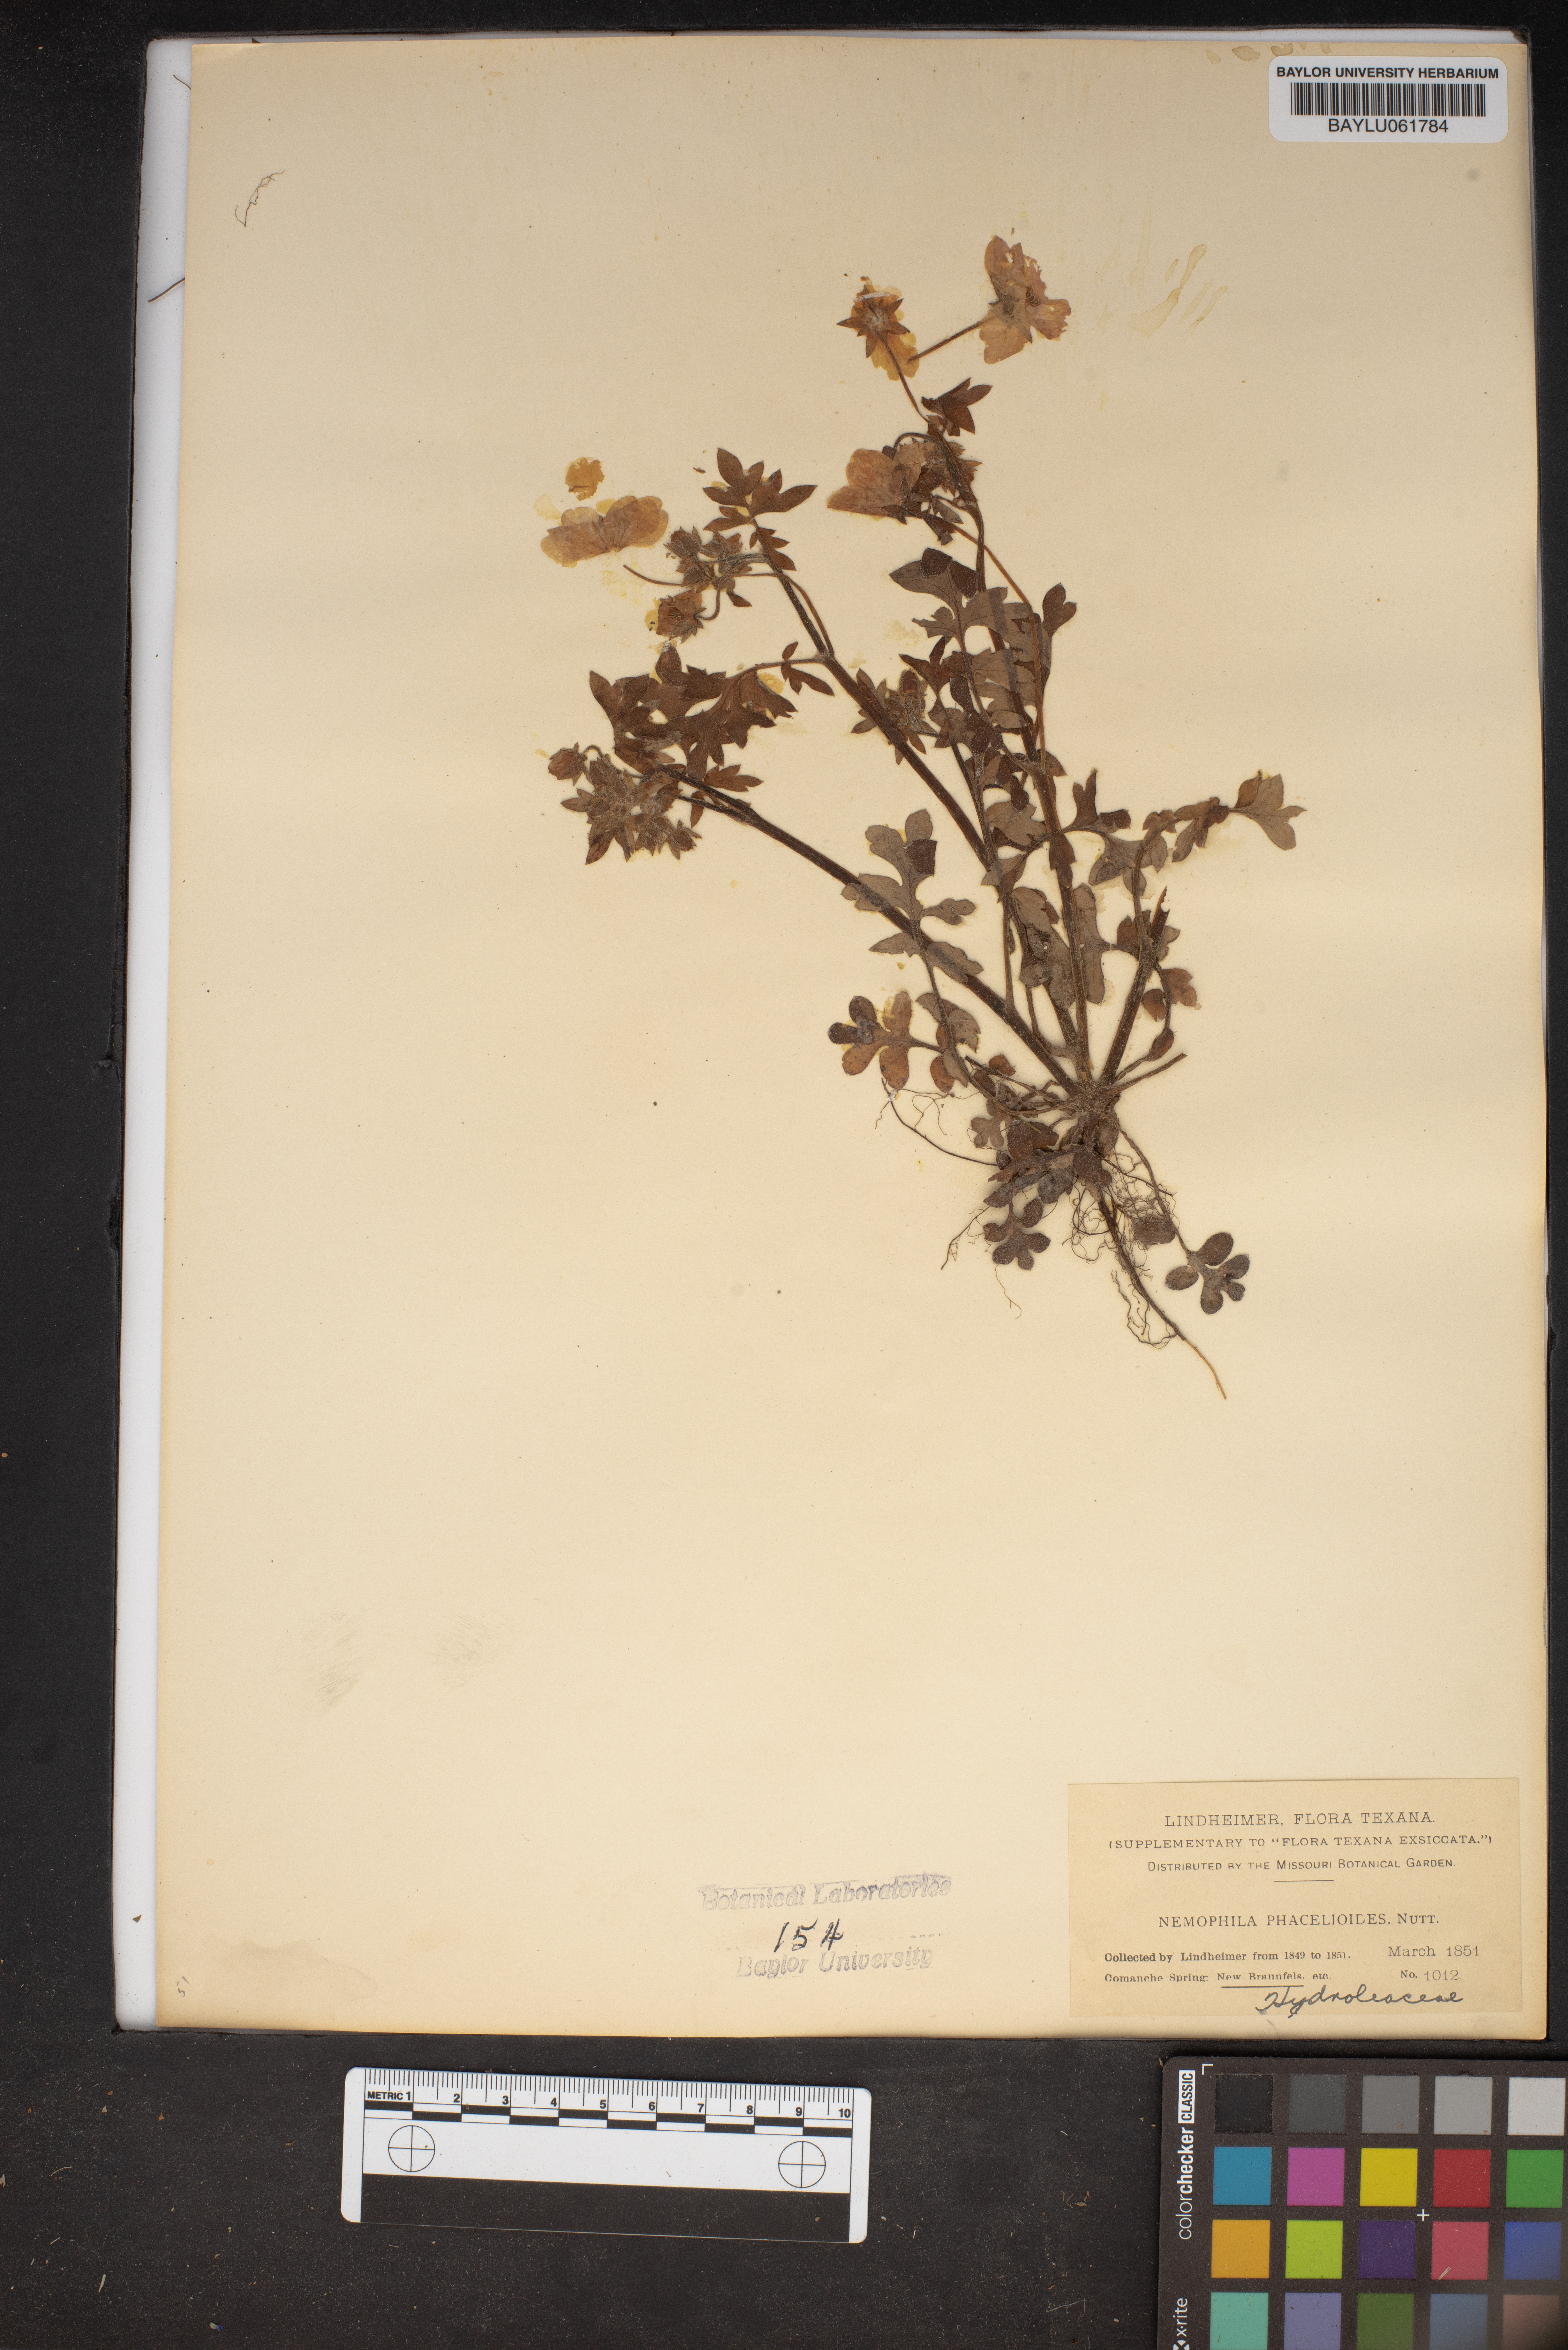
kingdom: Plantae
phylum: Tracheophyta
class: Magnoliopsida
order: Boraginales
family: Hydrophyllaceae
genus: Nemophila
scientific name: Nemophila phacelioides
